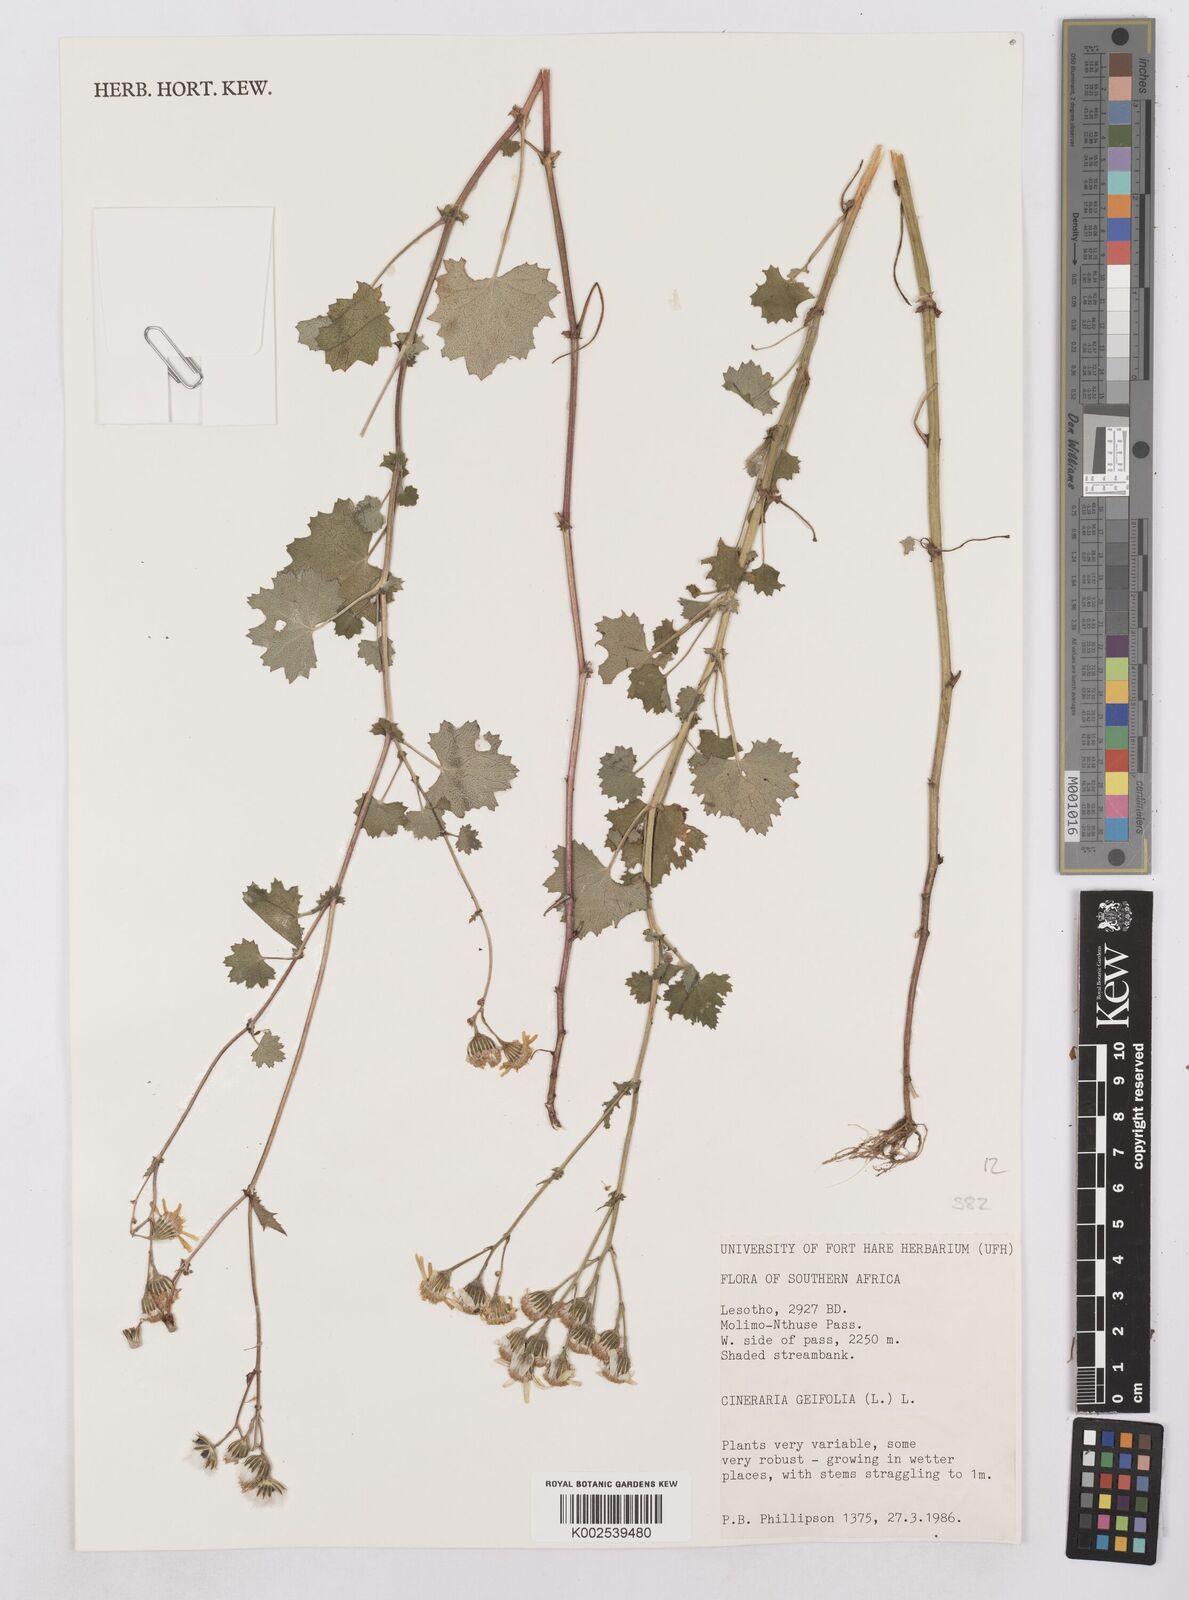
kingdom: Plantae
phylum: Tracheophyta
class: Magnoliopsida
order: Asterales
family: Asteraceae
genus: Cineraria
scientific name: Cineraria geifolia
